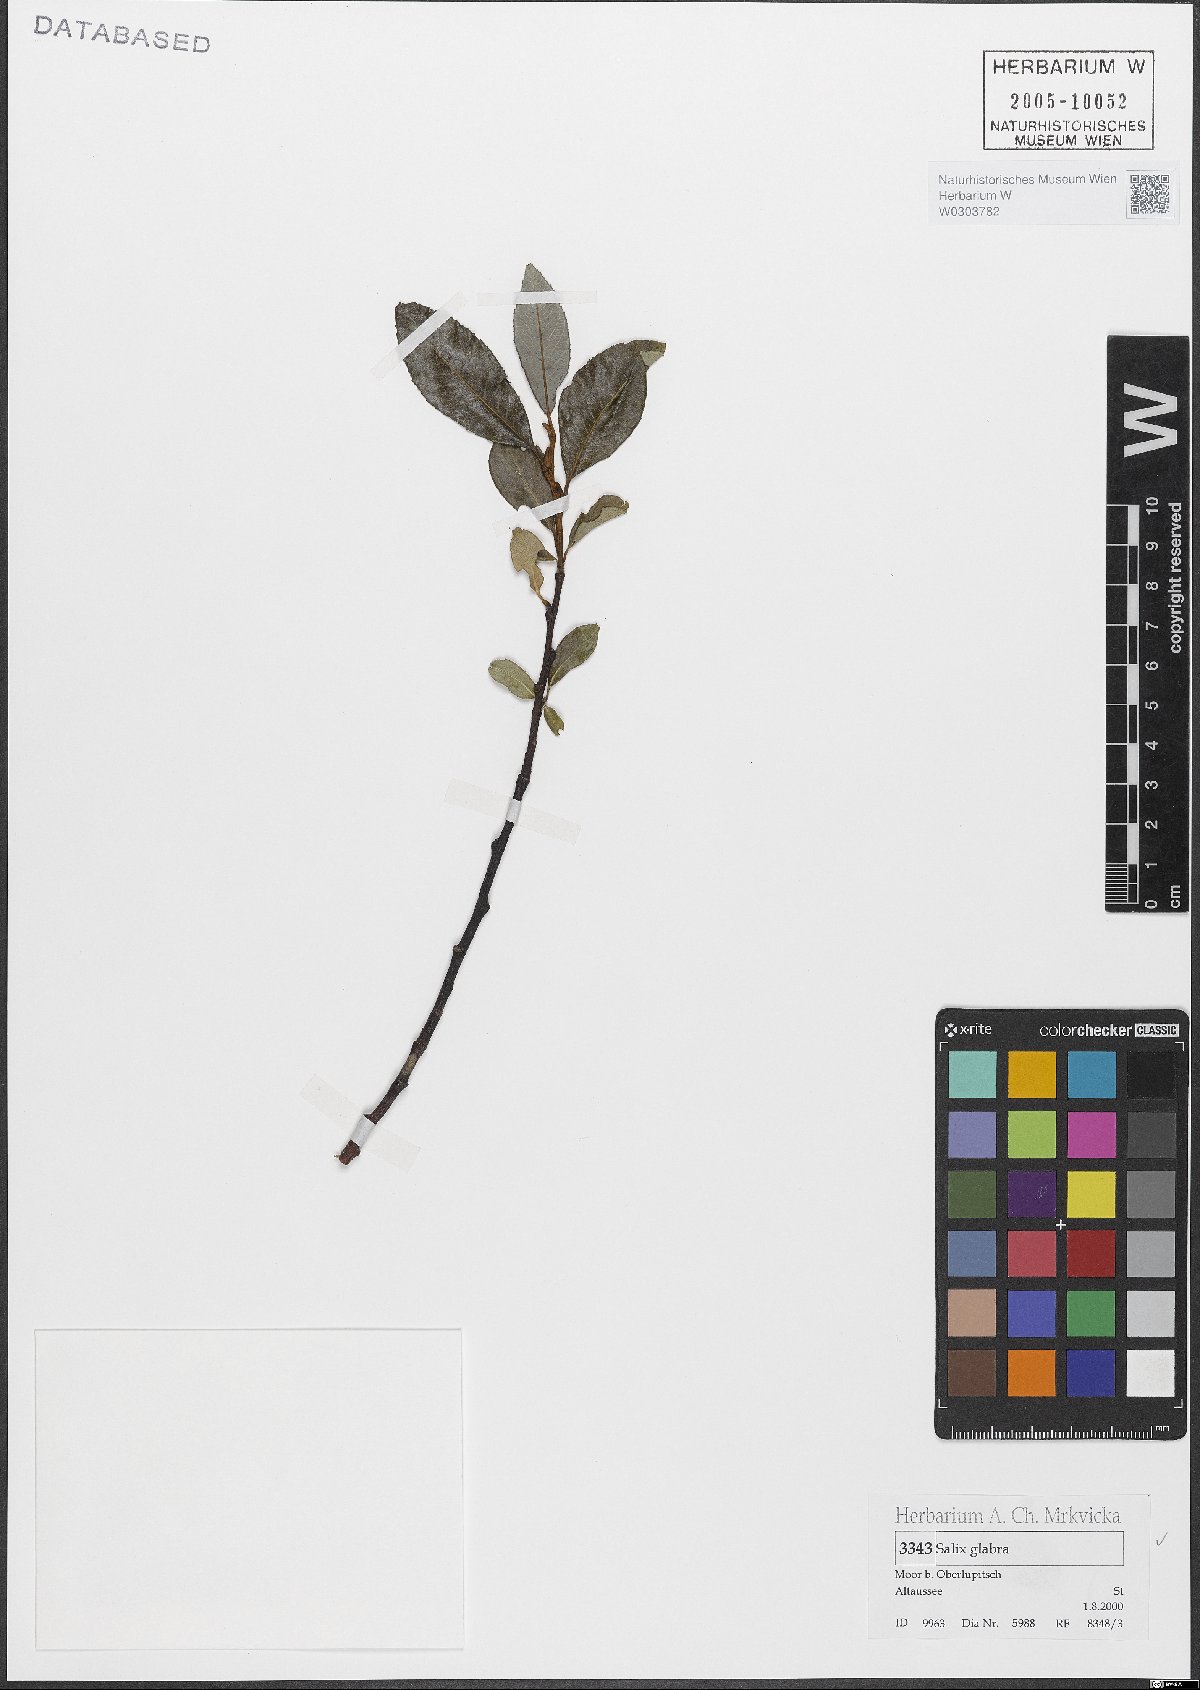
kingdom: Plantae
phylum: Tracheophyta
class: Magnoliopsida
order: Malpighiales
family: Salicaceae
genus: Salix
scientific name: Salix glabra
